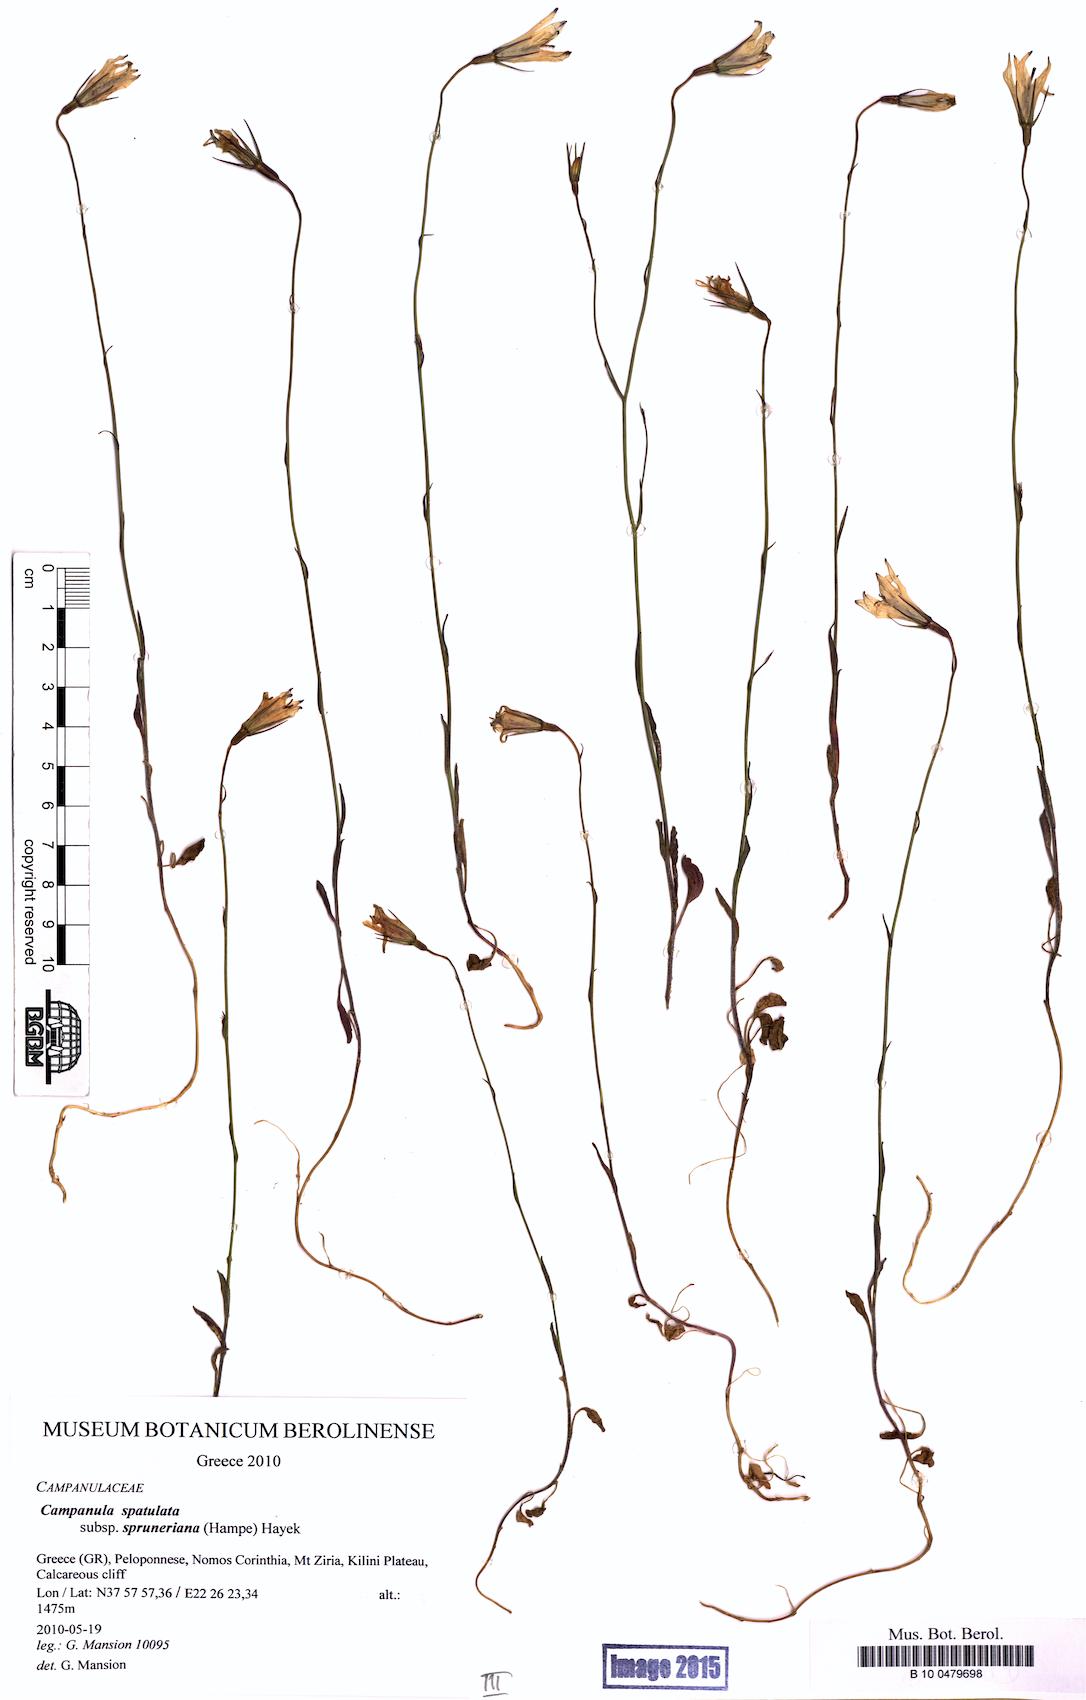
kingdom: Plantae
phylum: Tracheophyta
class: Magnoliopsida
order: Asterales
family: Campanulaceae
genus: Campanula
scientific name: Campanula spatulata
